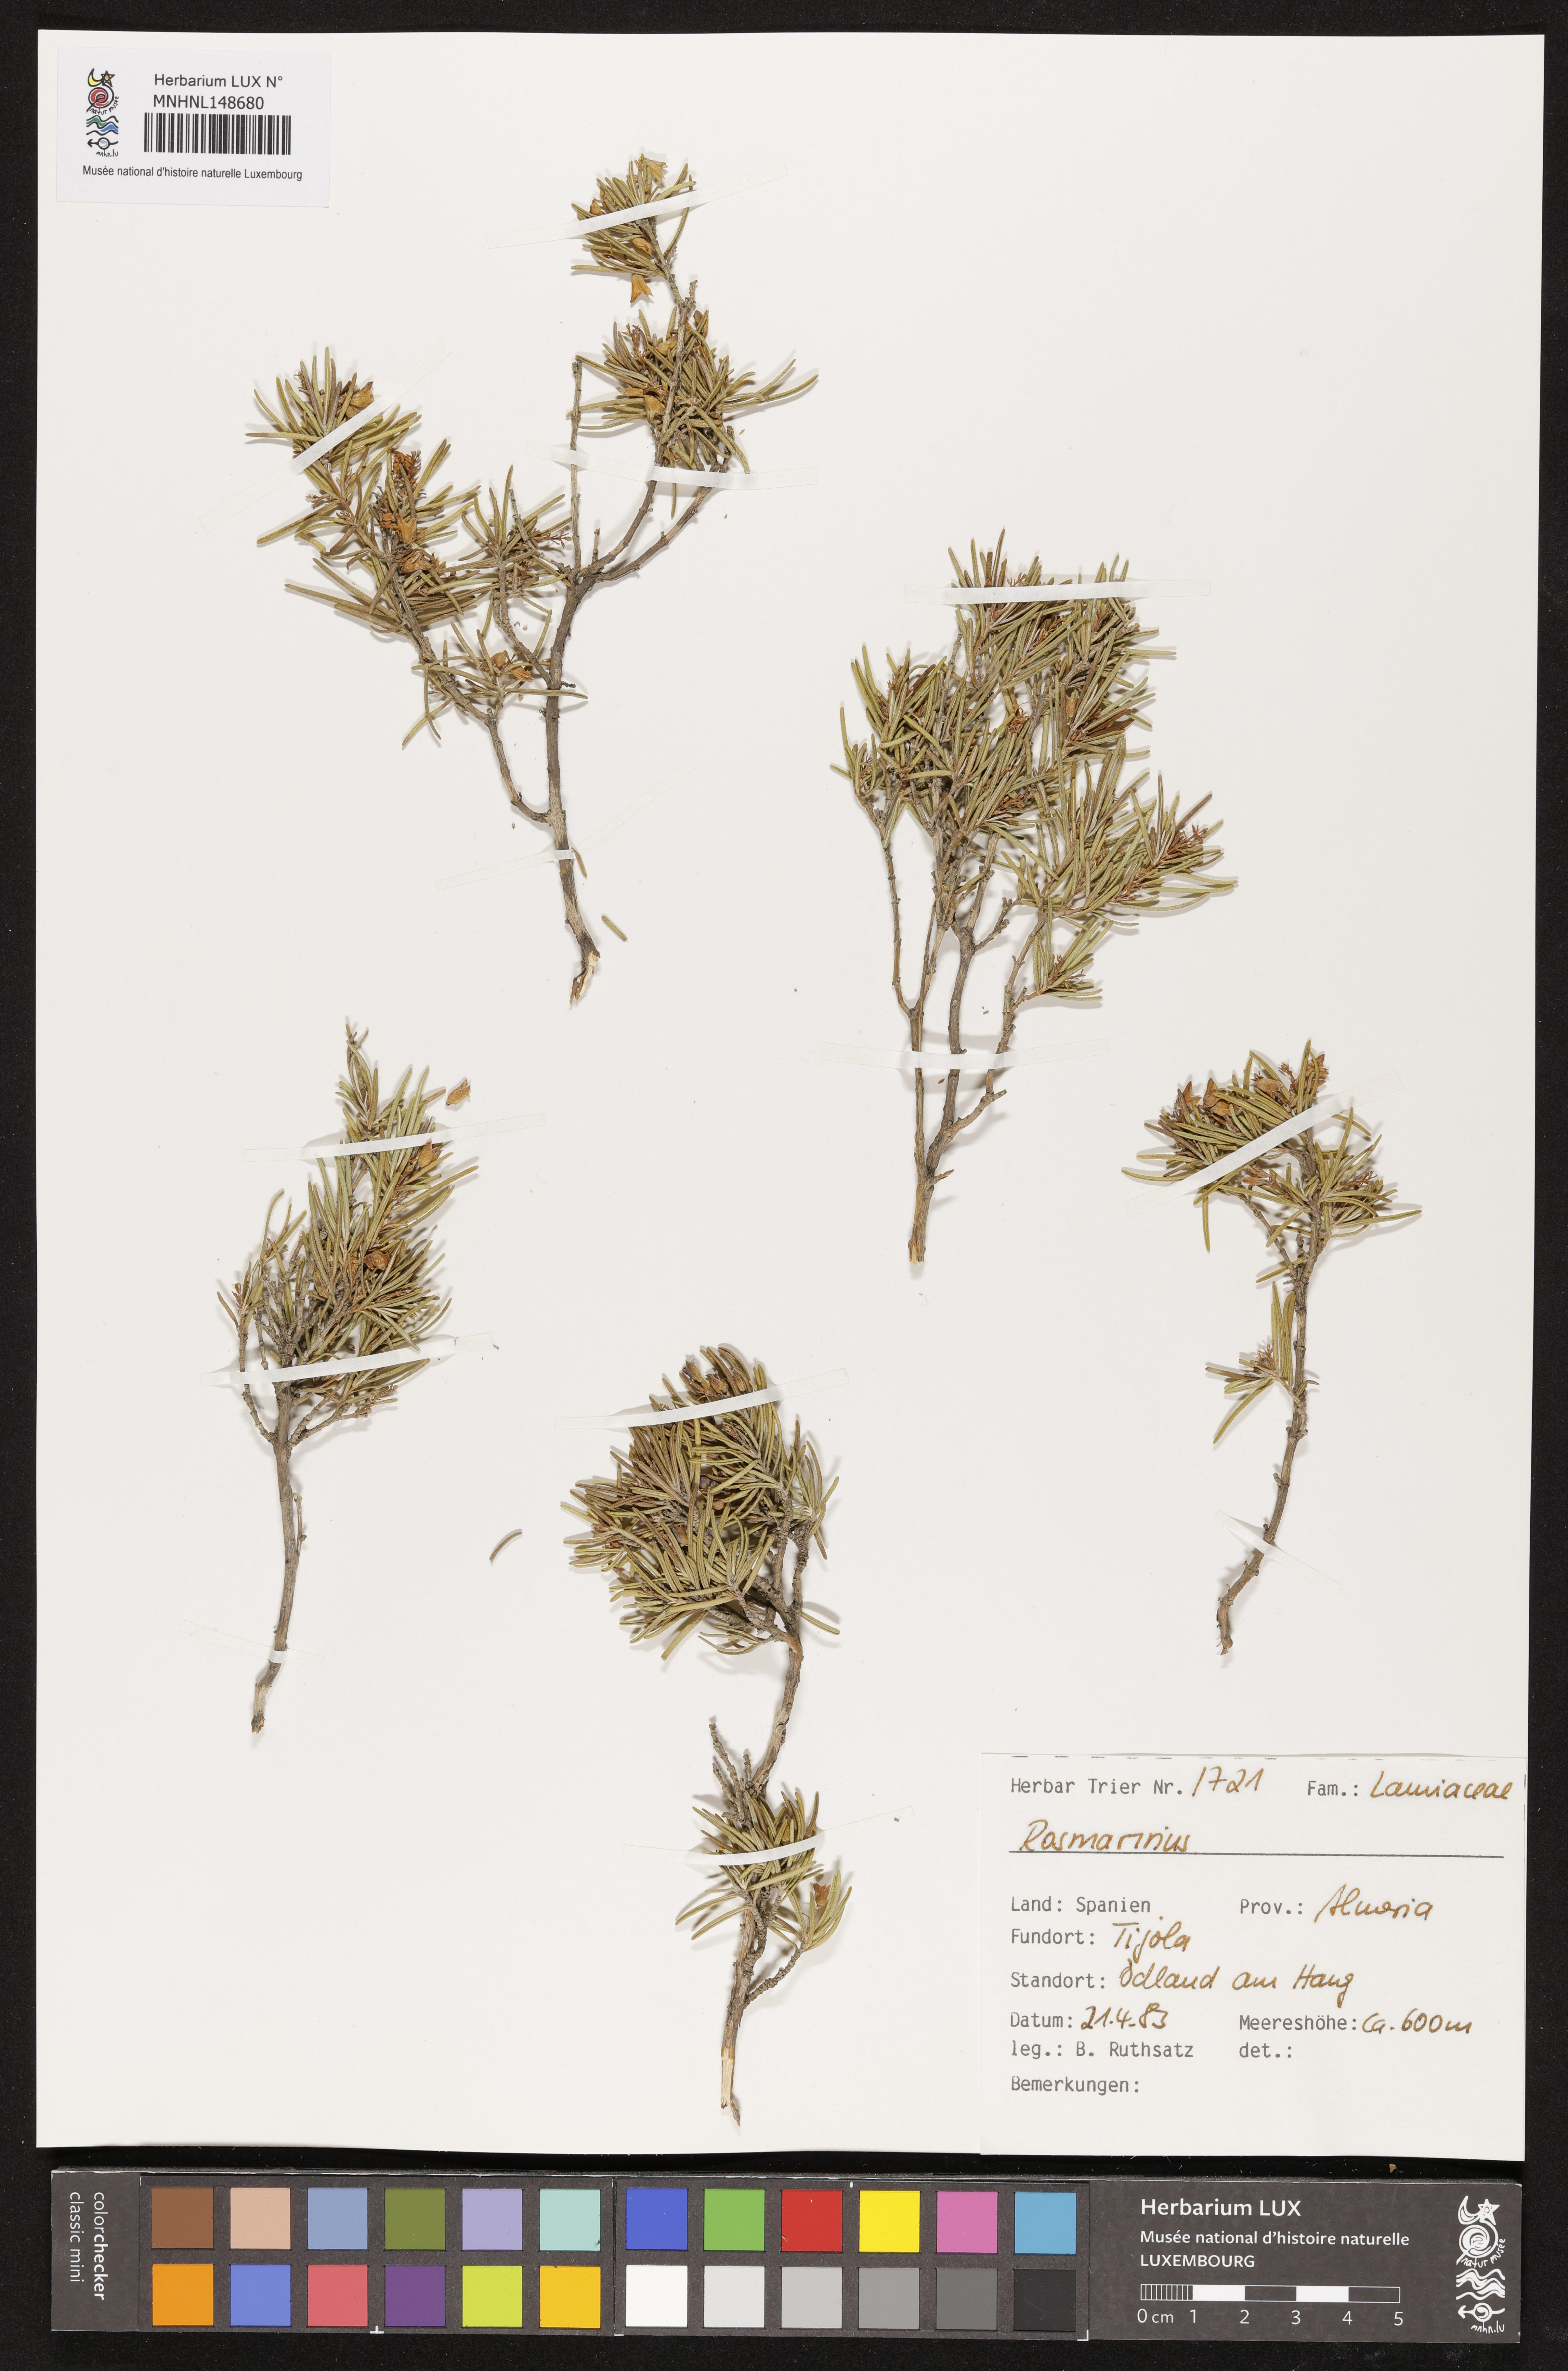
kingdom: Plantae
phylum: Tracheophyta
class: Magnoliopsida
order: Lamiales
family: Lamiaceae
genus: Salvia
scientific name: Salvia
